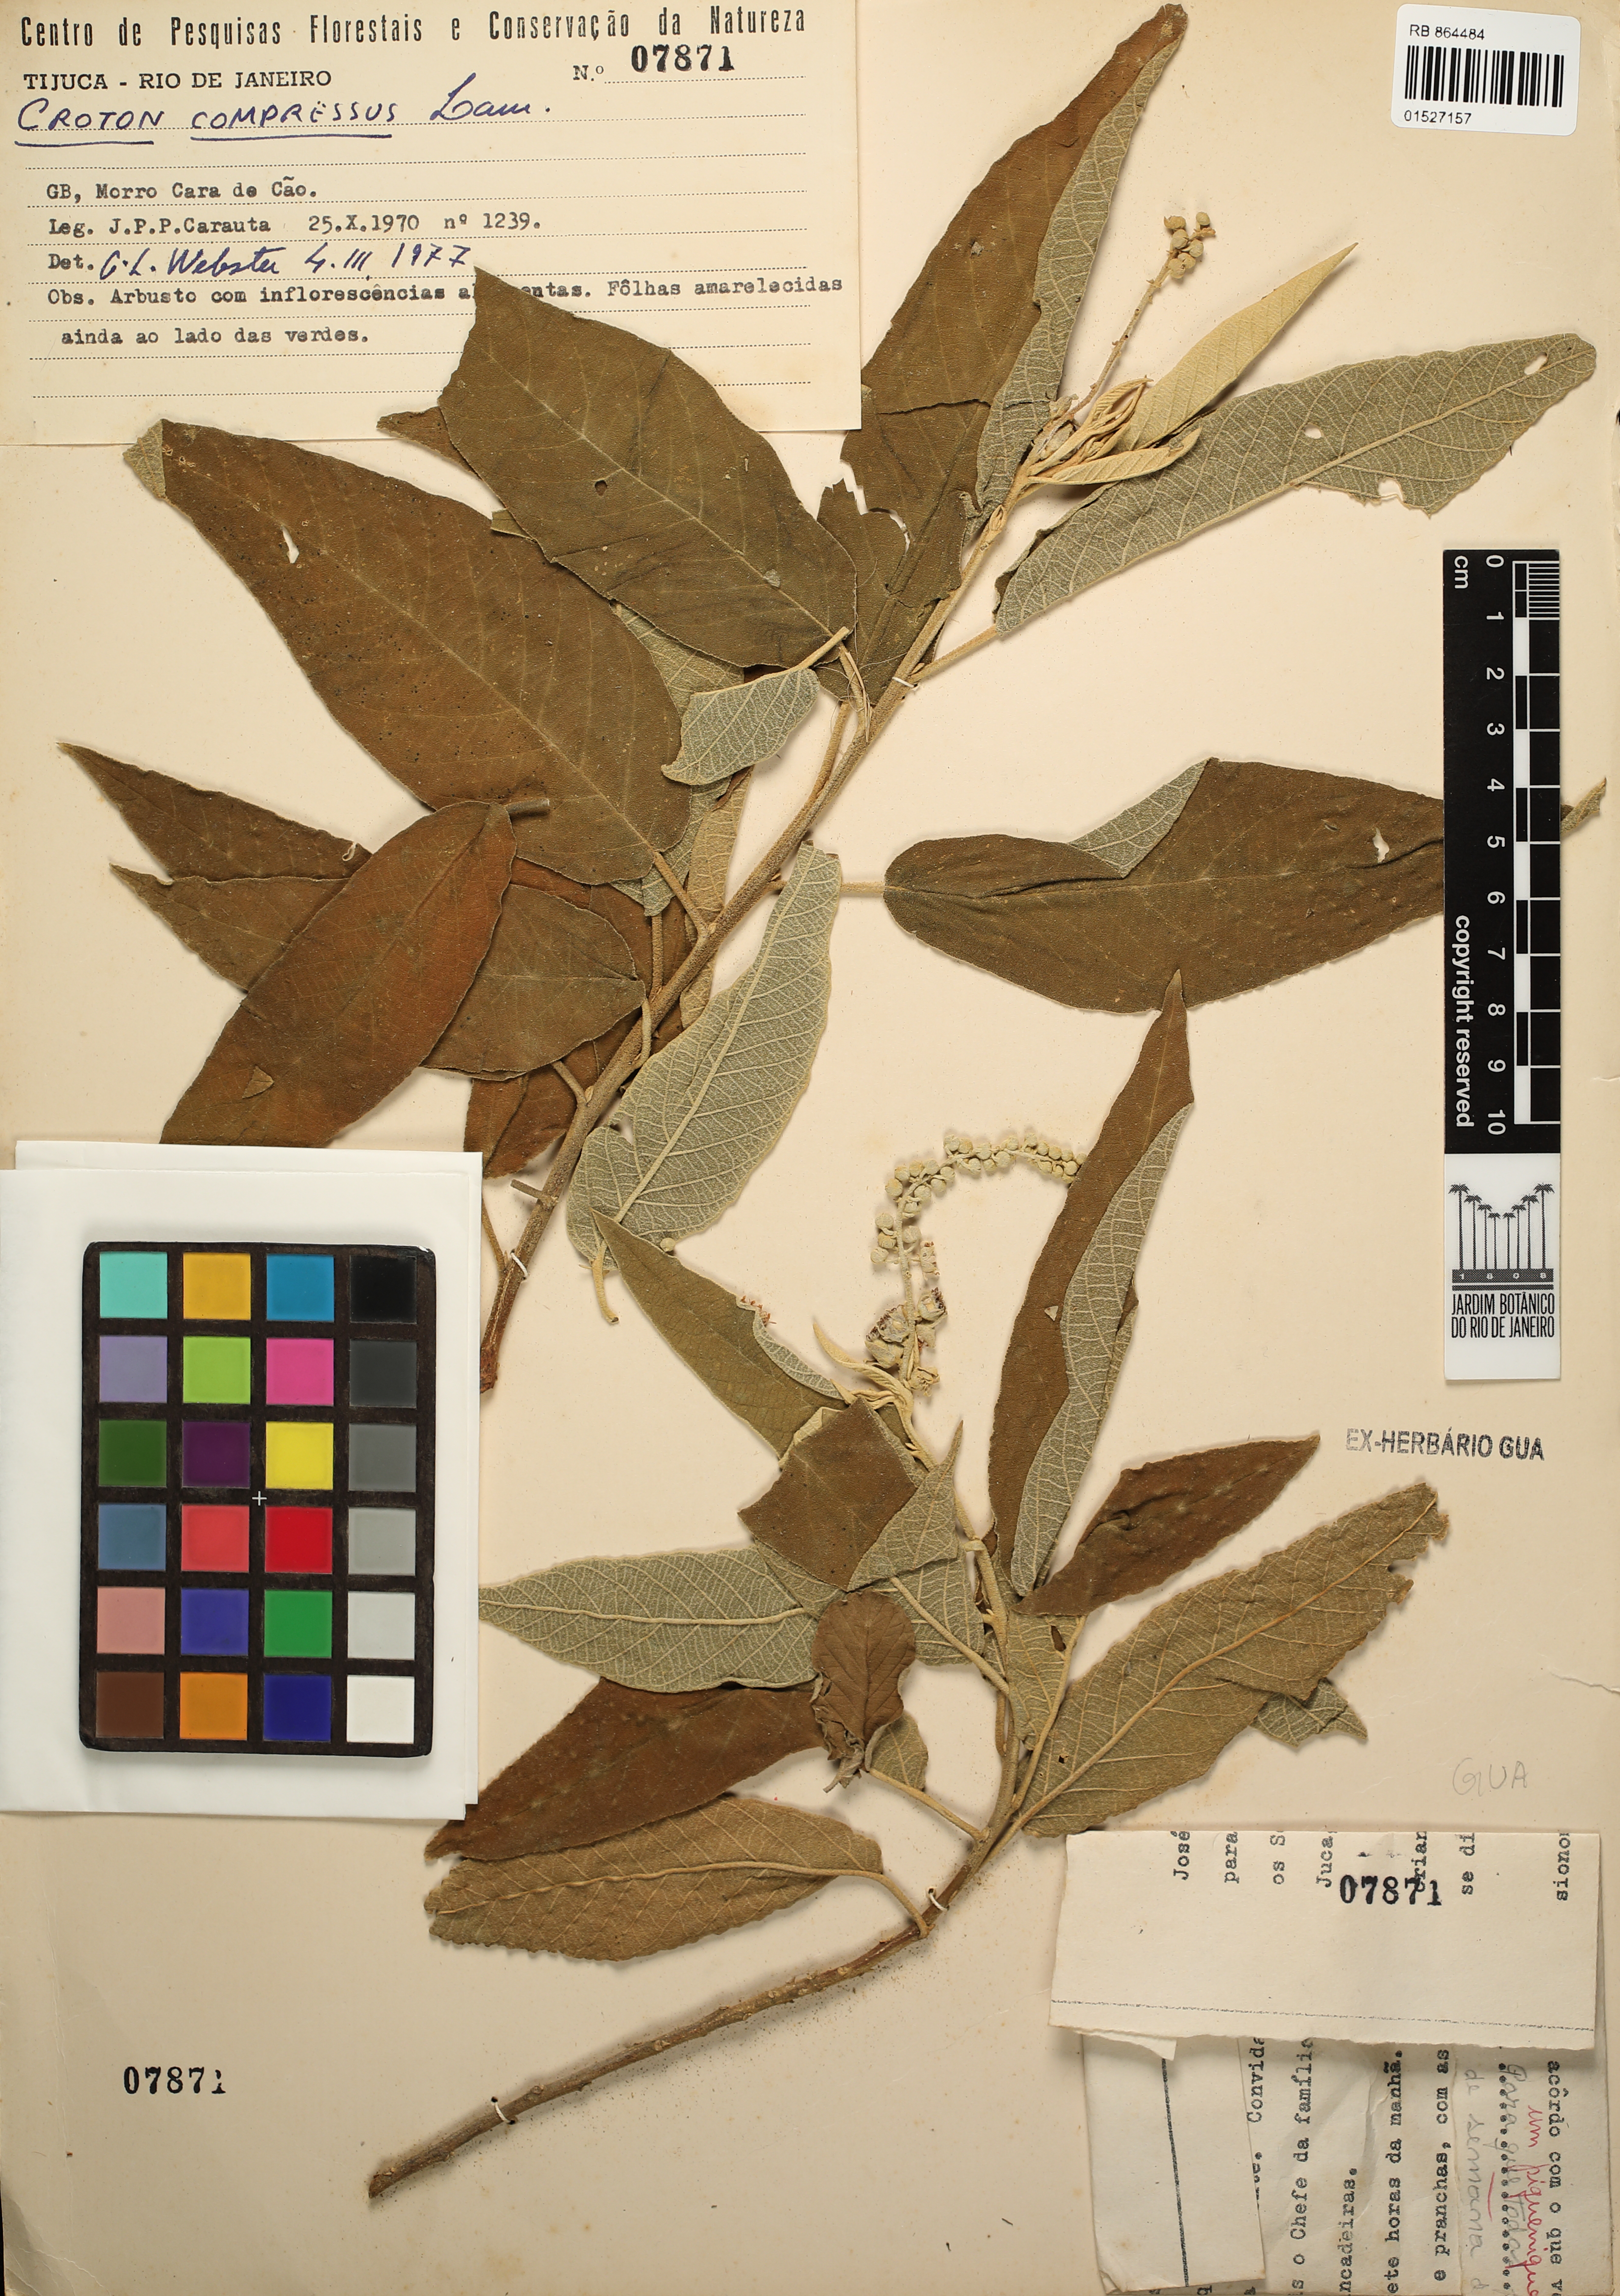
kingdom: Plantae
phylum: Tracheophyta
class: Magnoliopsida
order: Malpighiales
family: Euphorbiaceae
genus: Croton
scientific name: Croton compressus
